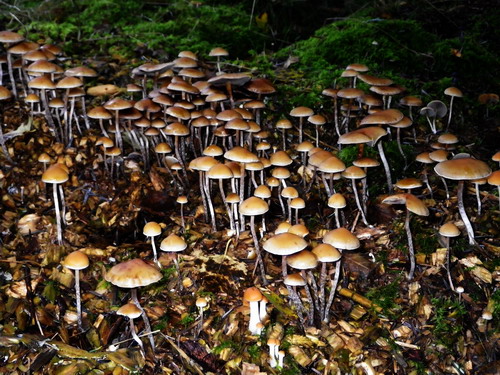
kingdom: Fungi
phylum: Basidiomycota
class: Agaricomycetes
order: Agaricales
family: Strophariaceae
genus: Hypholoma
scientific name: Hypholoma marginatum
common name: enlig svovlhat
